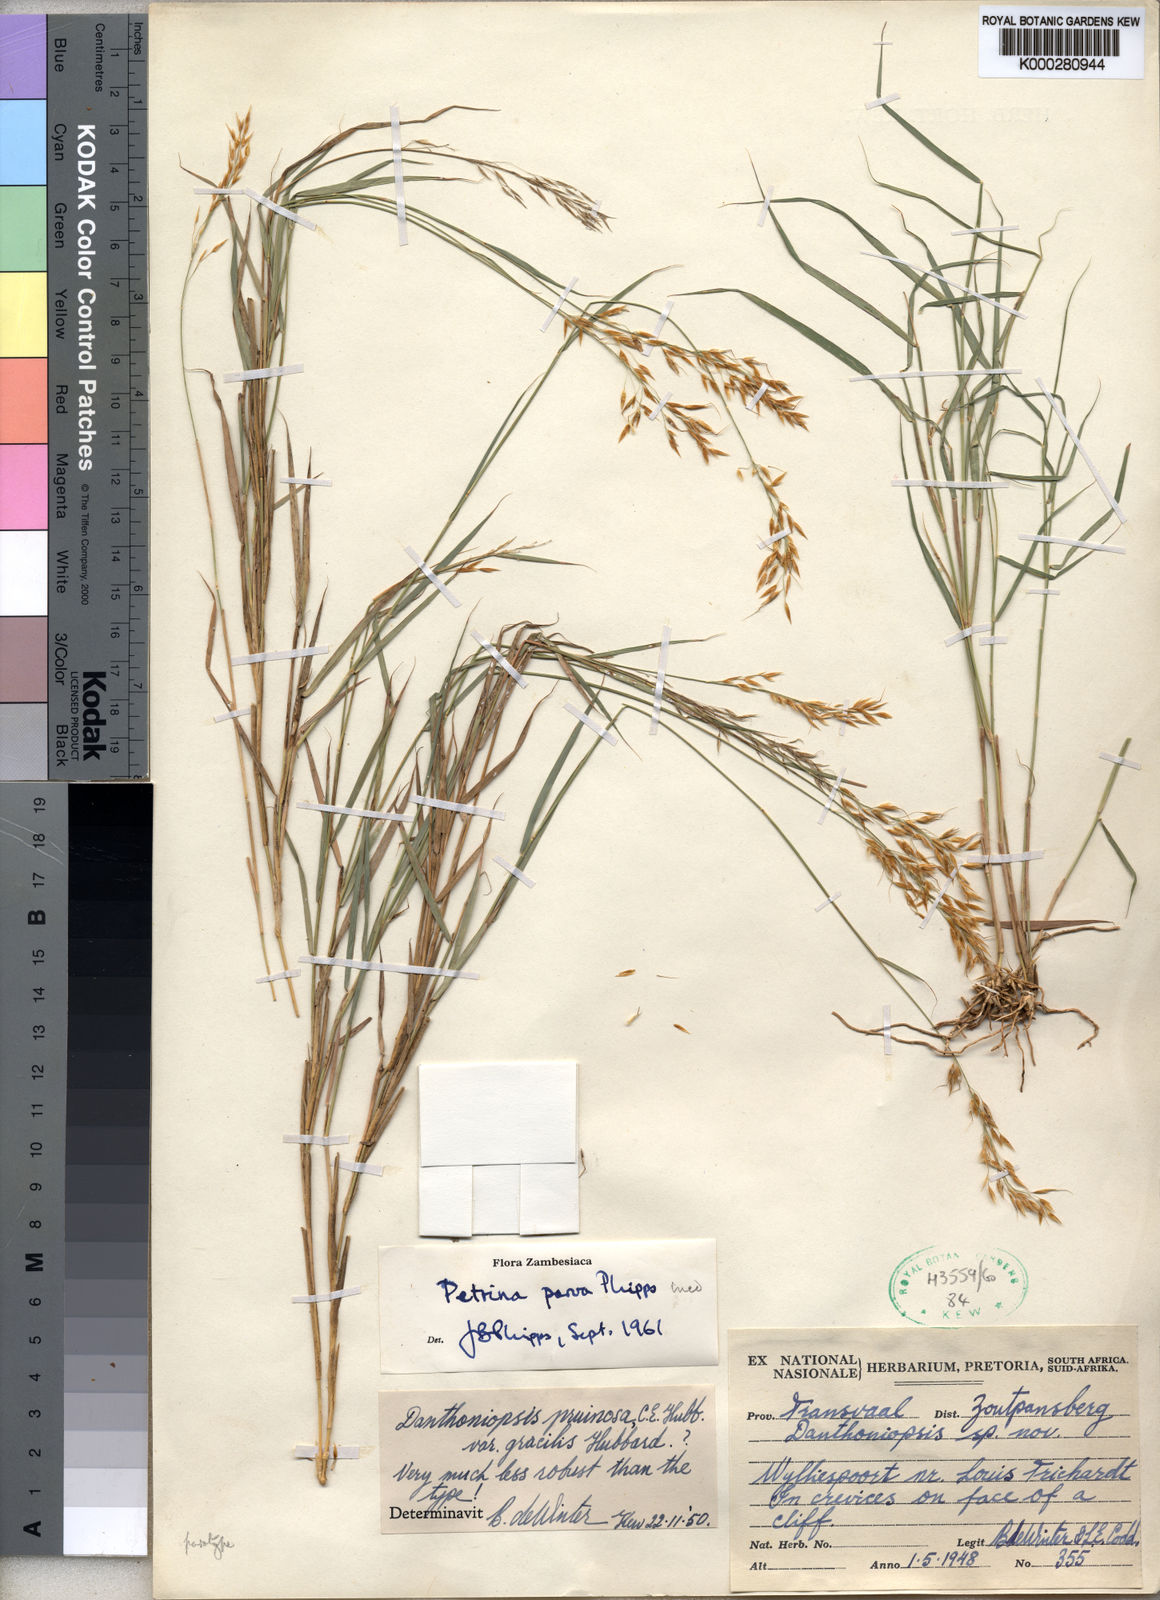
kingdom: Plantae
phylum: Tracheophyta
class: Liliopsida
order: Poales
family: Poaceae
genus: Danthoniopsis
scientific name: Danthoniopsis parva
